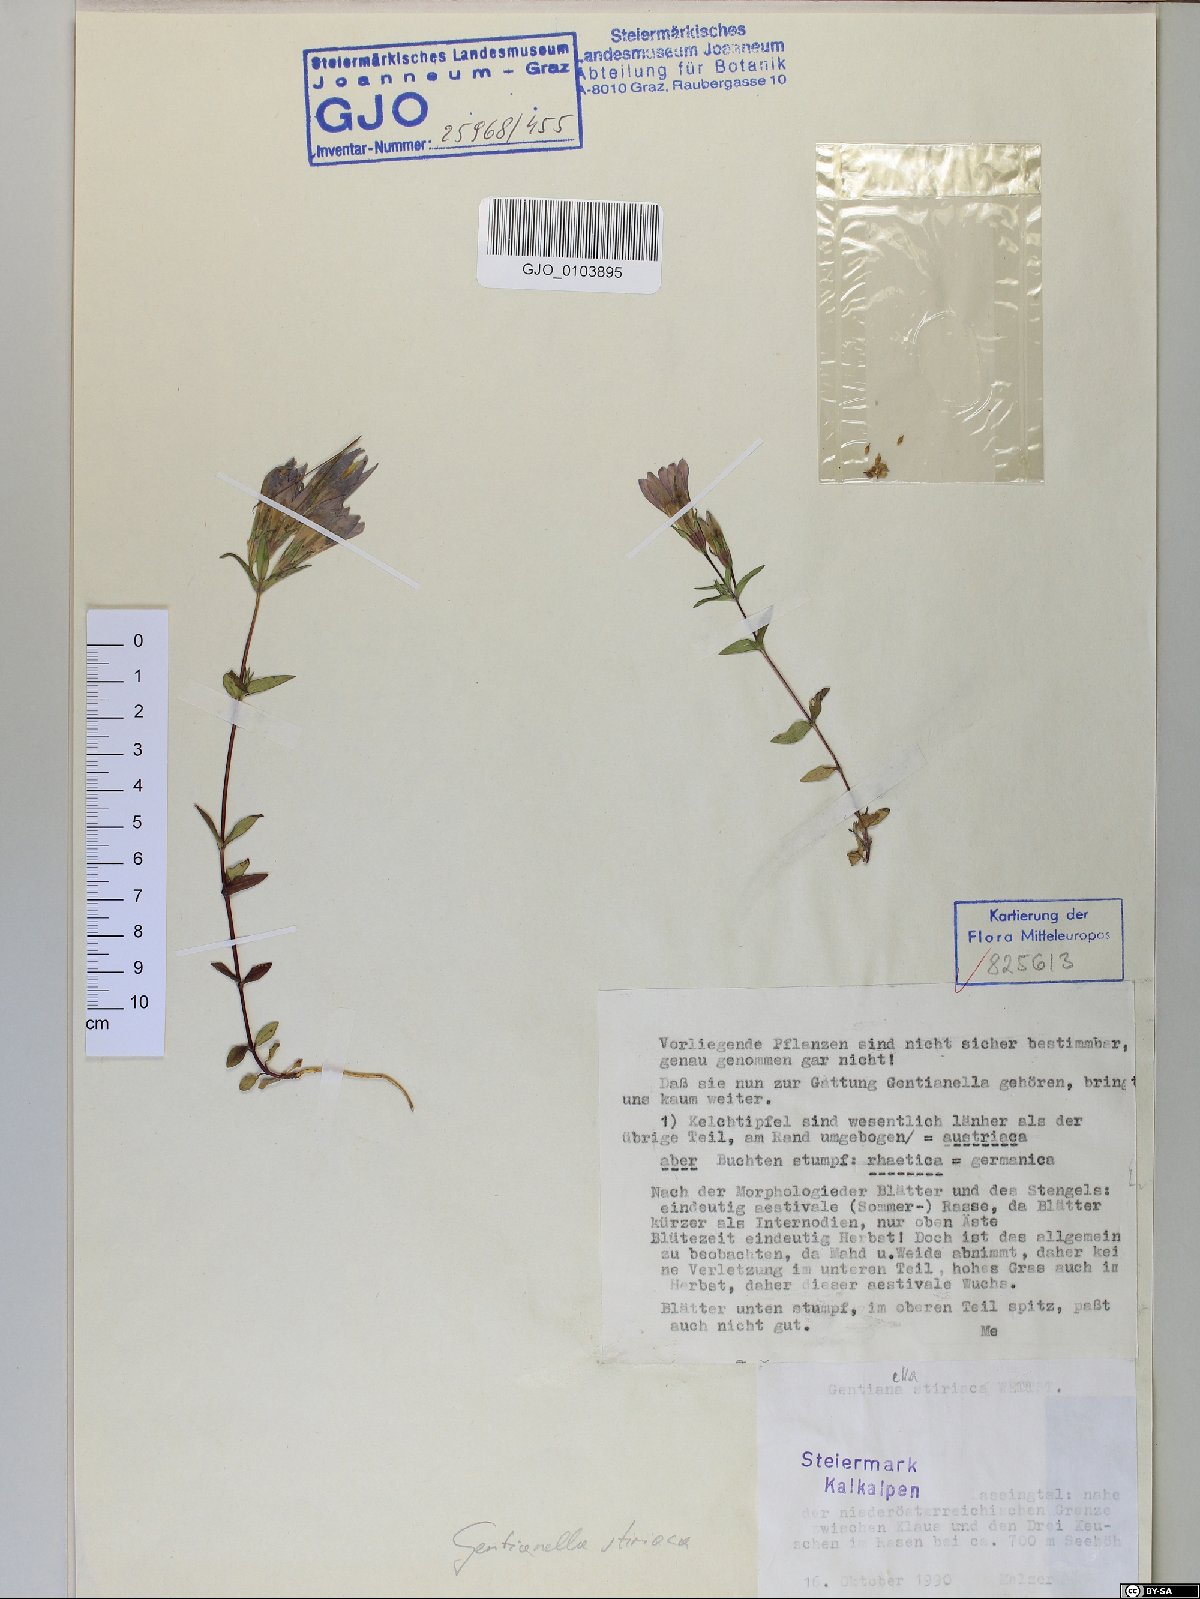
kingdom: Plantae
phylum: Tracheophyta
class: Magnoliopsida
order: Gentianales
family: Gentianaceae
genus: Gentianella
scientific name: Gentianella rhaetica
